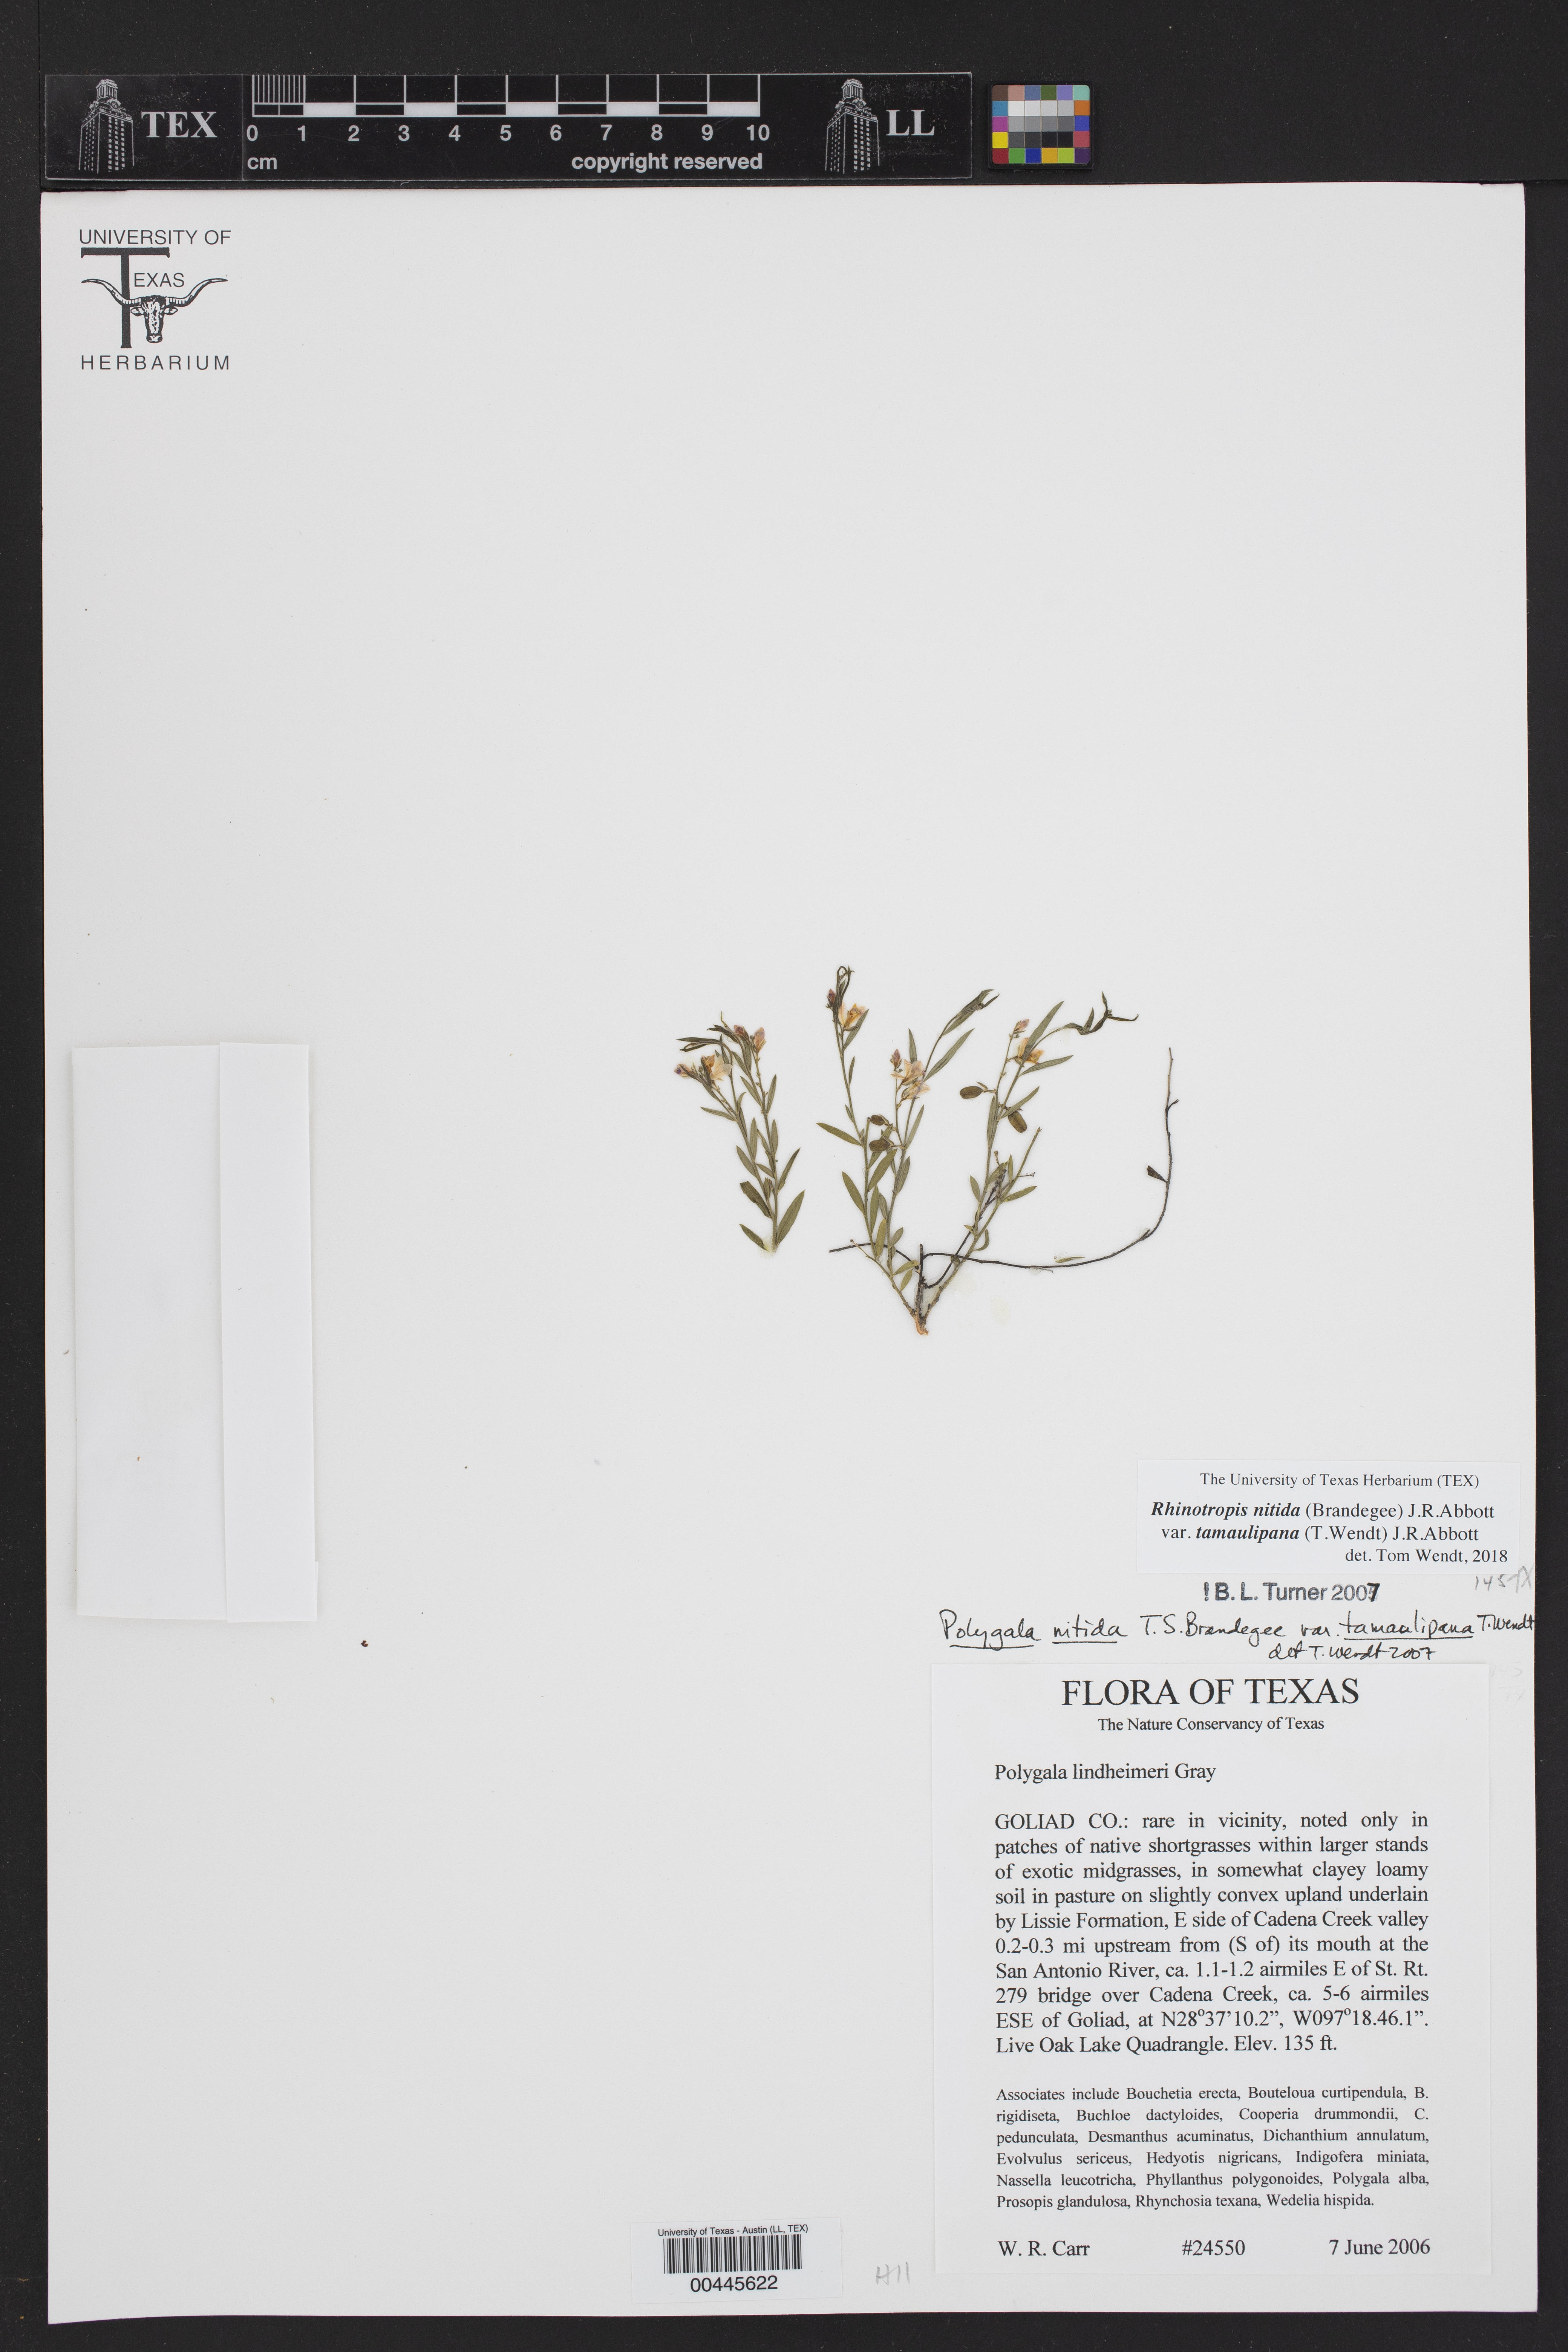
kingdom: Plantae
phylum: Tracheophyta
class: Magnoliopsida
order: Fabales
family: Polygalaceae
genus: Rhinotropis
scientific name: Rhinotropis nitida
